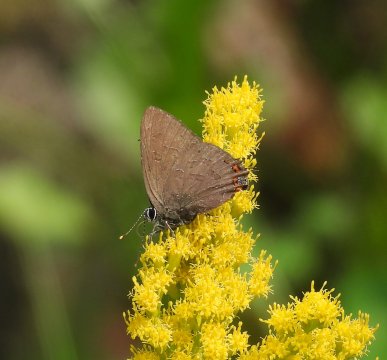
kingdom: Animalia
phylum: Arthropoda
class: Insecta
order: Lepidoptera
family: Lycaenidae
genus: Satyrium
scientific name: Satyrium liparops
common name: Striped Hairstreak
